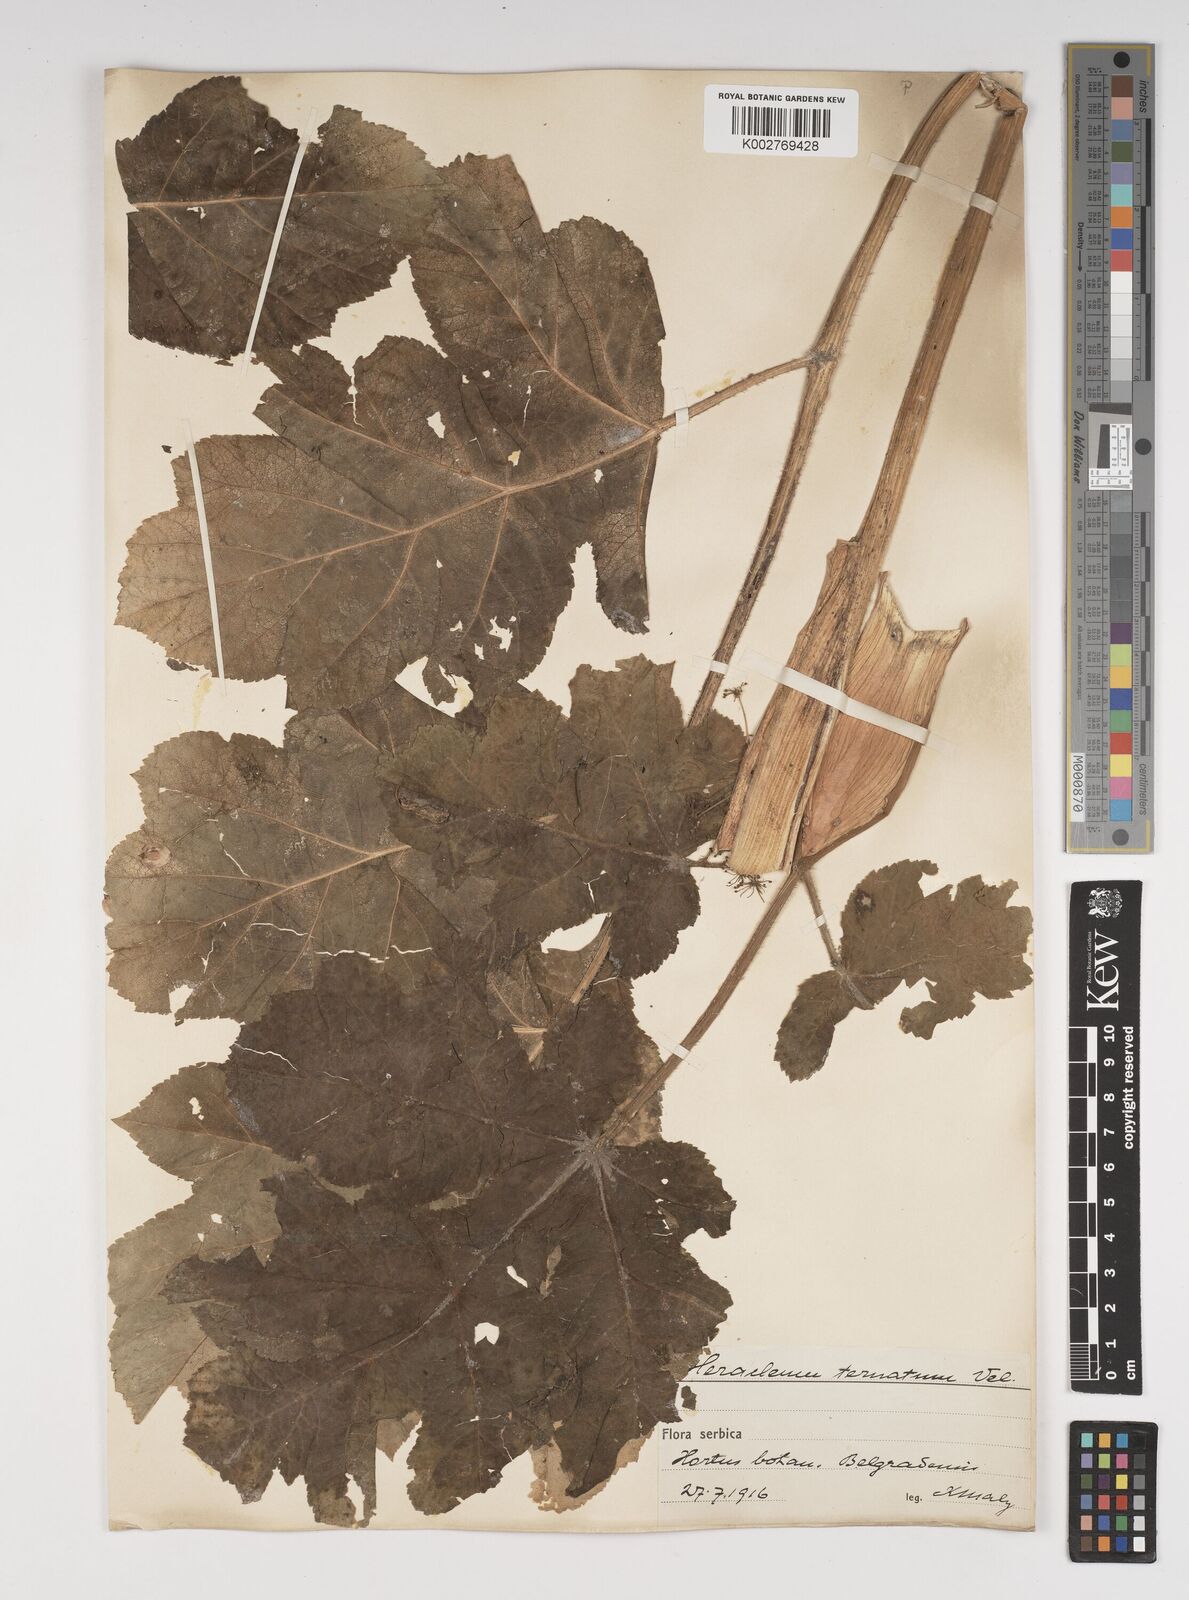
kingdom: Plantae
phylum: Tracheophyta
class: Magnoliopsida
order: Apiales
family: Apiaceae
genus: Heracleum
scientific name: Heracleum sphondylium
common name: Hogweed
